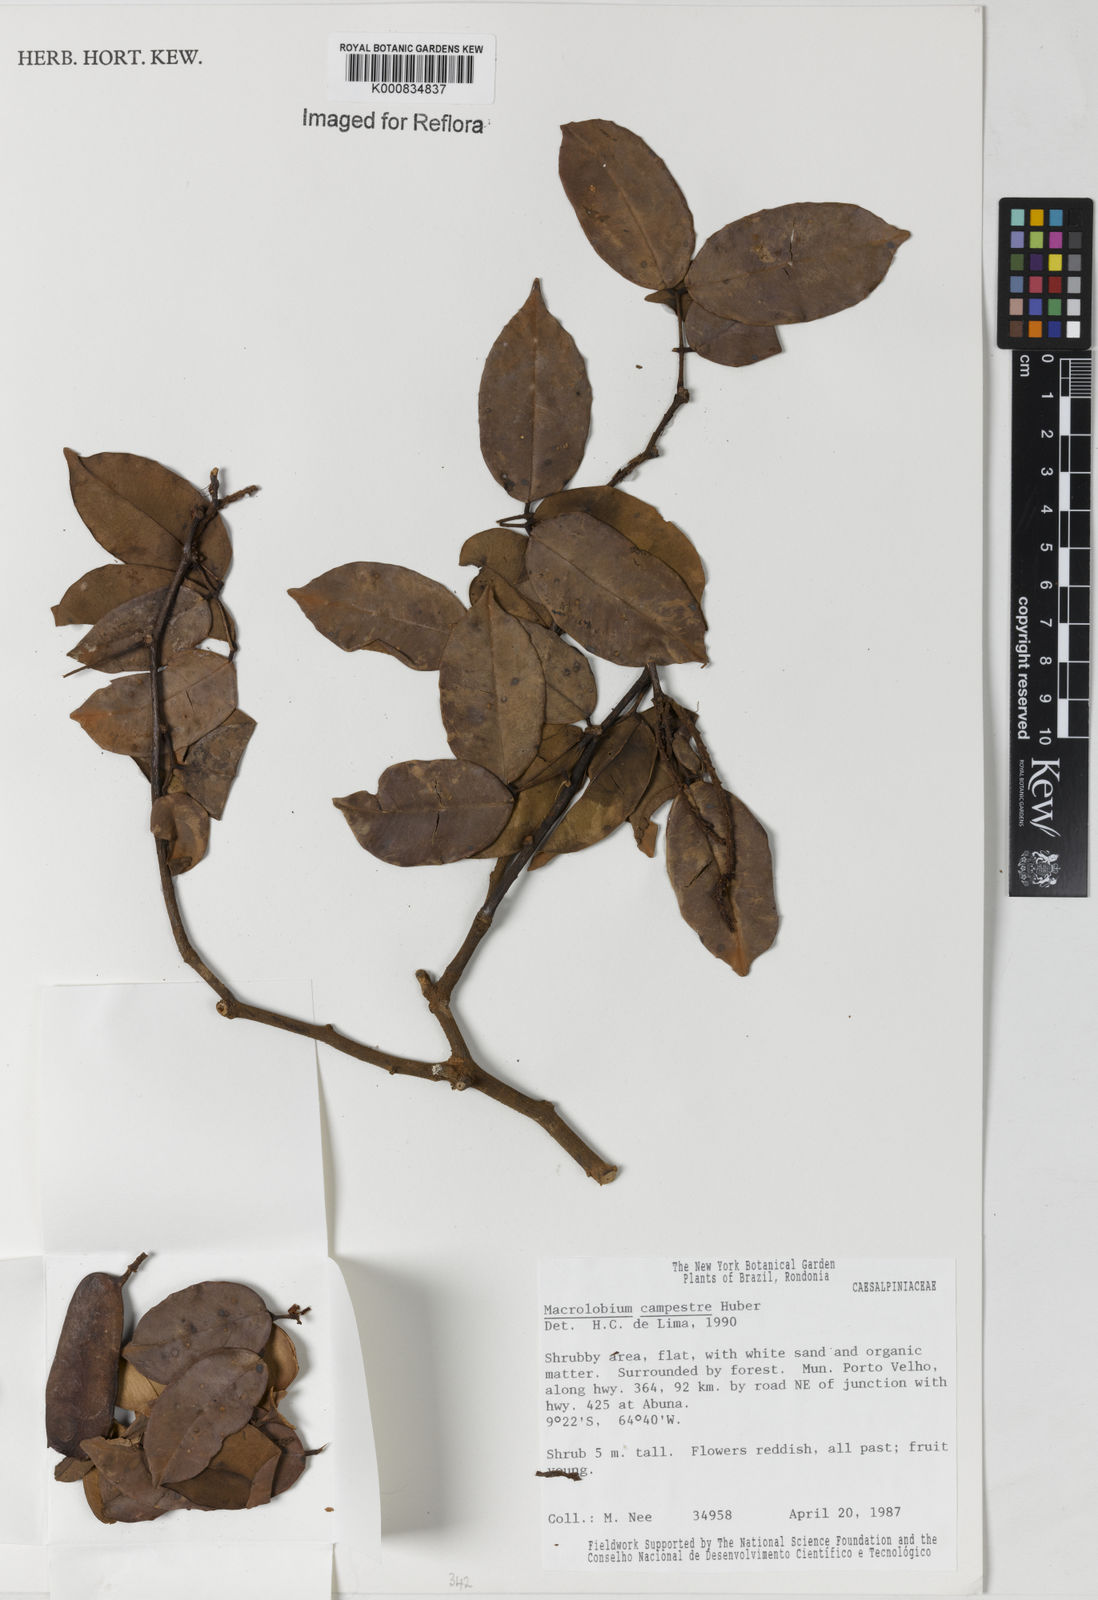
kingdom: Plantae
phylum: Tracheophyta
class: Magnoliopsida
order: Fabales
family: Fabaceae
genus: Macrolobium
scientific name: Macrolobium campestre
